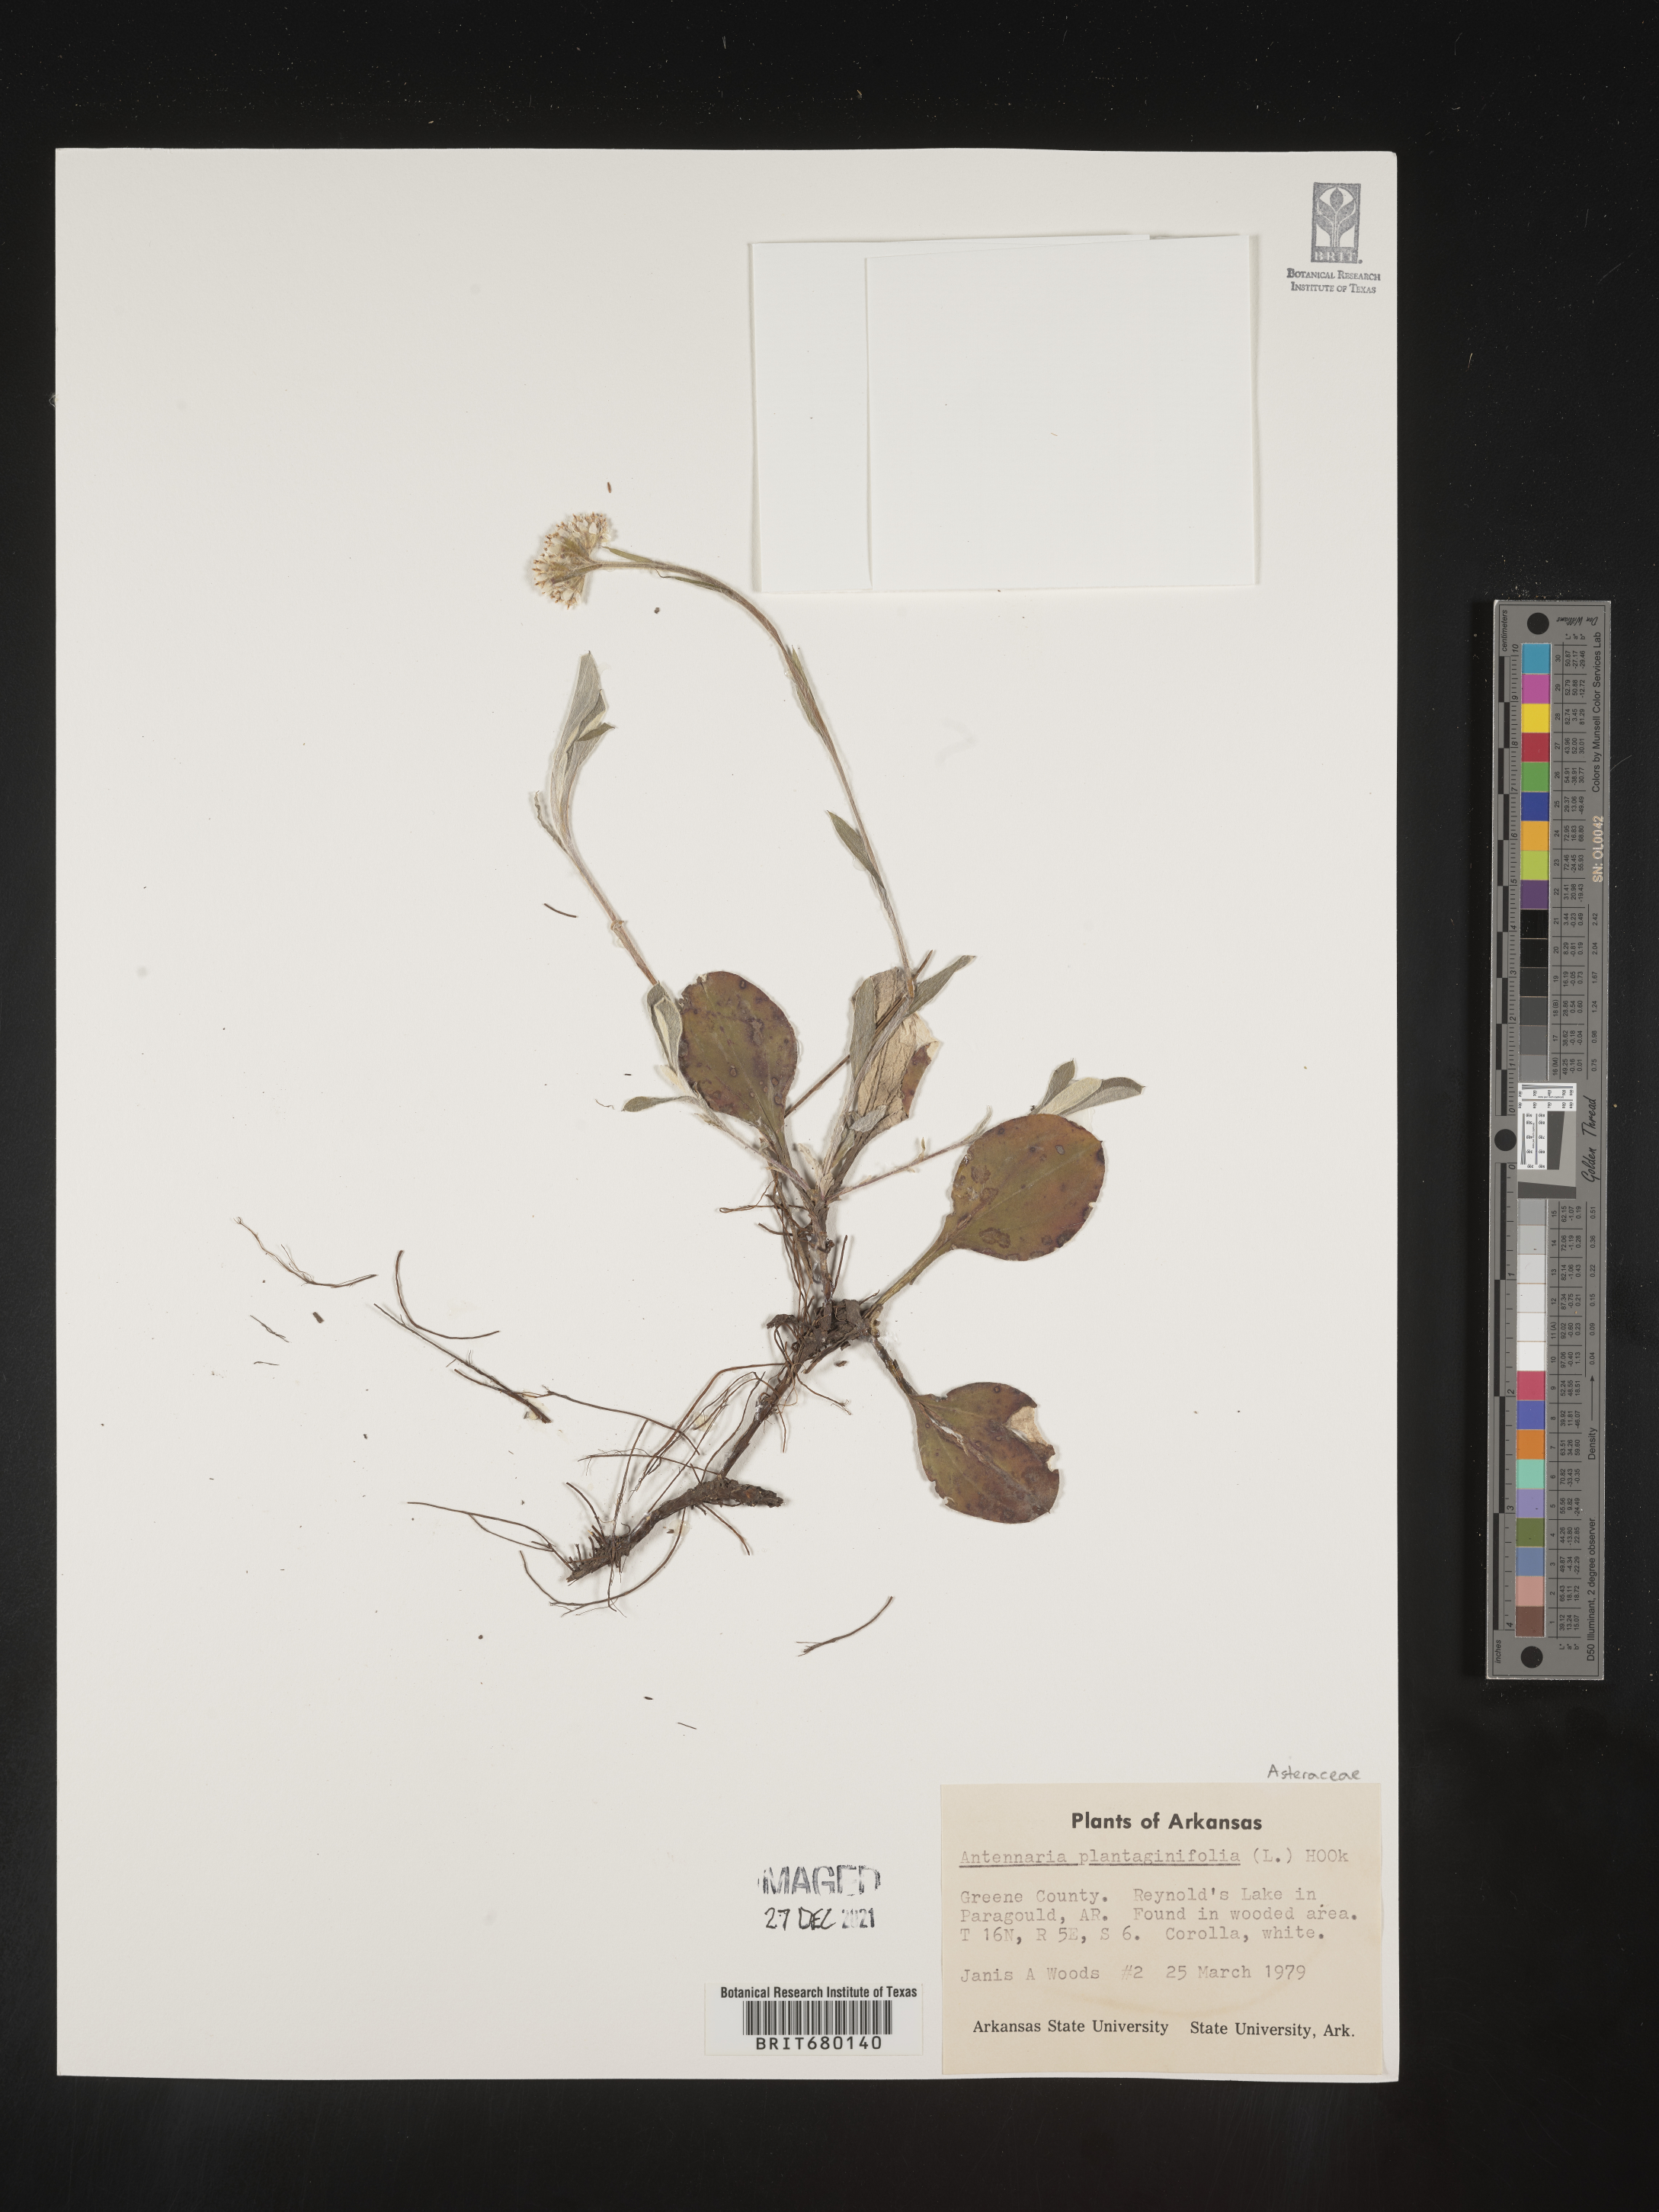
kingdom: Plantae
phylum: Tracheophyta
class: Magnoliopsida
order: Asterales
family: Asteraceae
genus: Antennaria
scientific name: Antennaria plantaginifolia
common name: Plantain-leaved pussytoes
